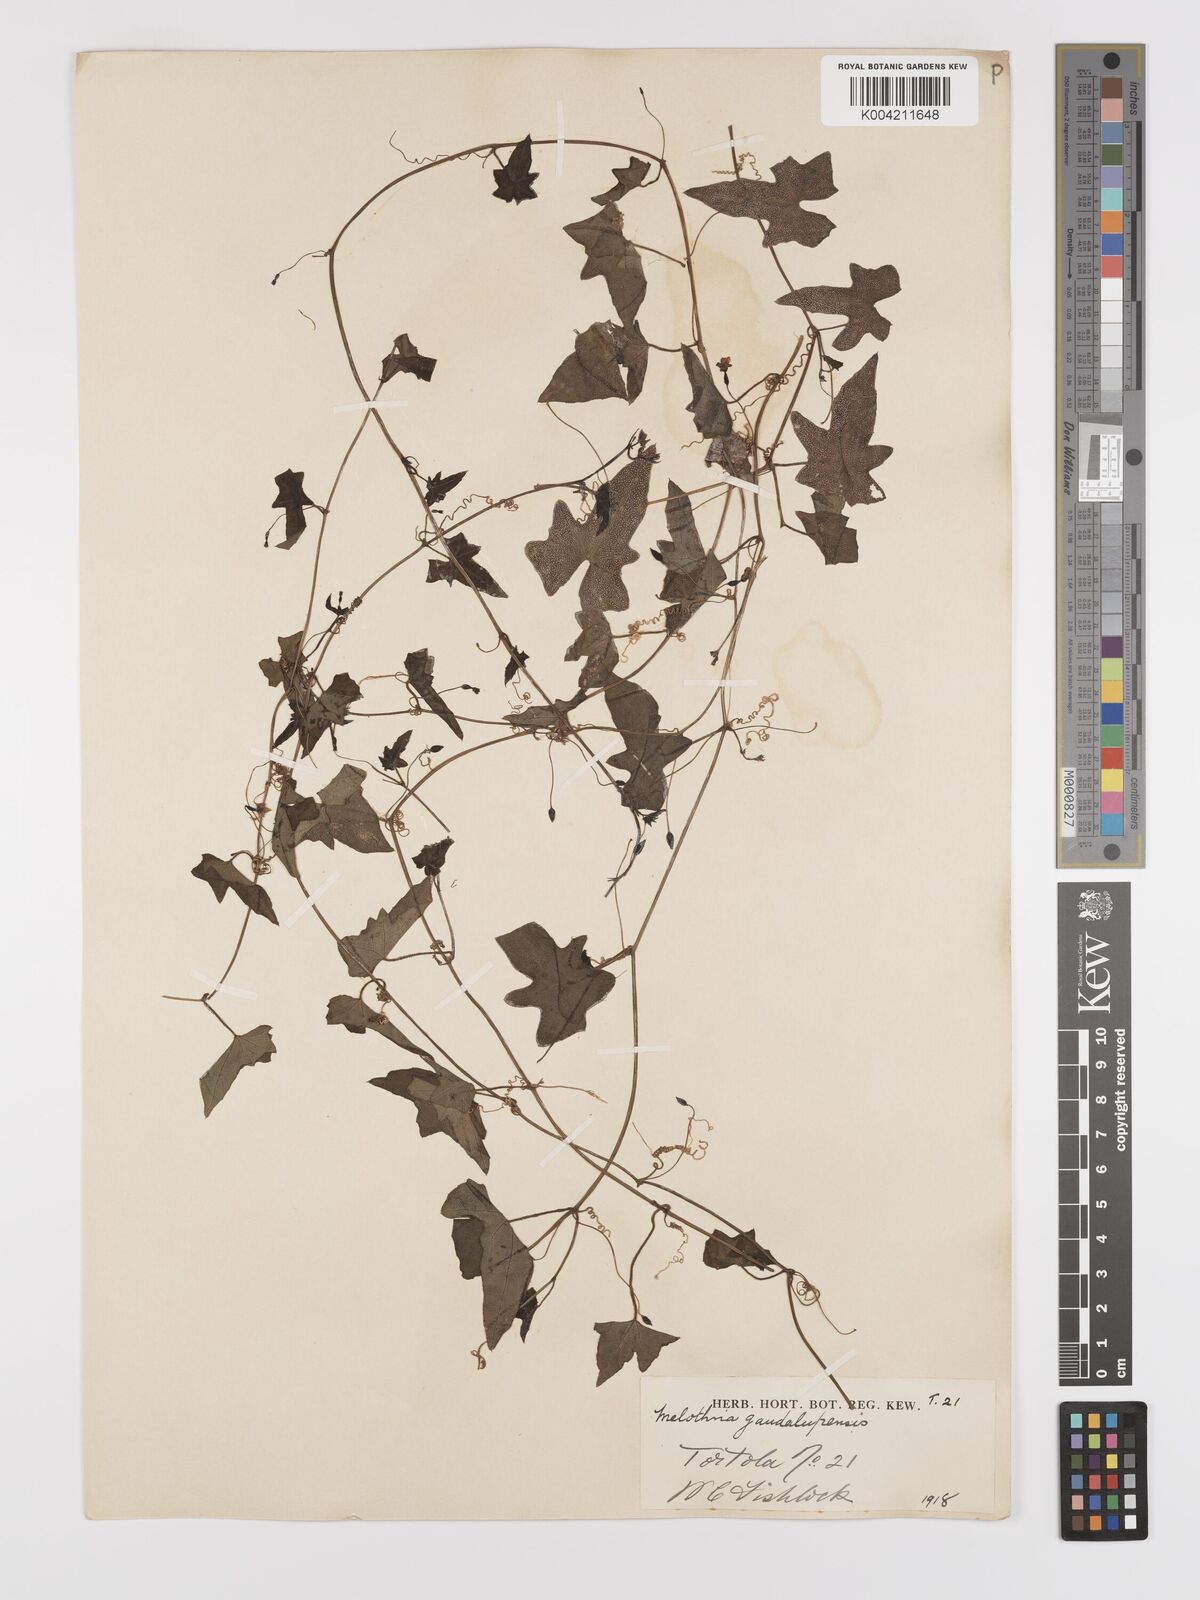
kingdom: Plantae
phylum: Tracheophyta
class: Magnoliopsida
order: Cucurbitales
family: Cucurbitaceae
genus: Melothria
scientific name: Melothria
